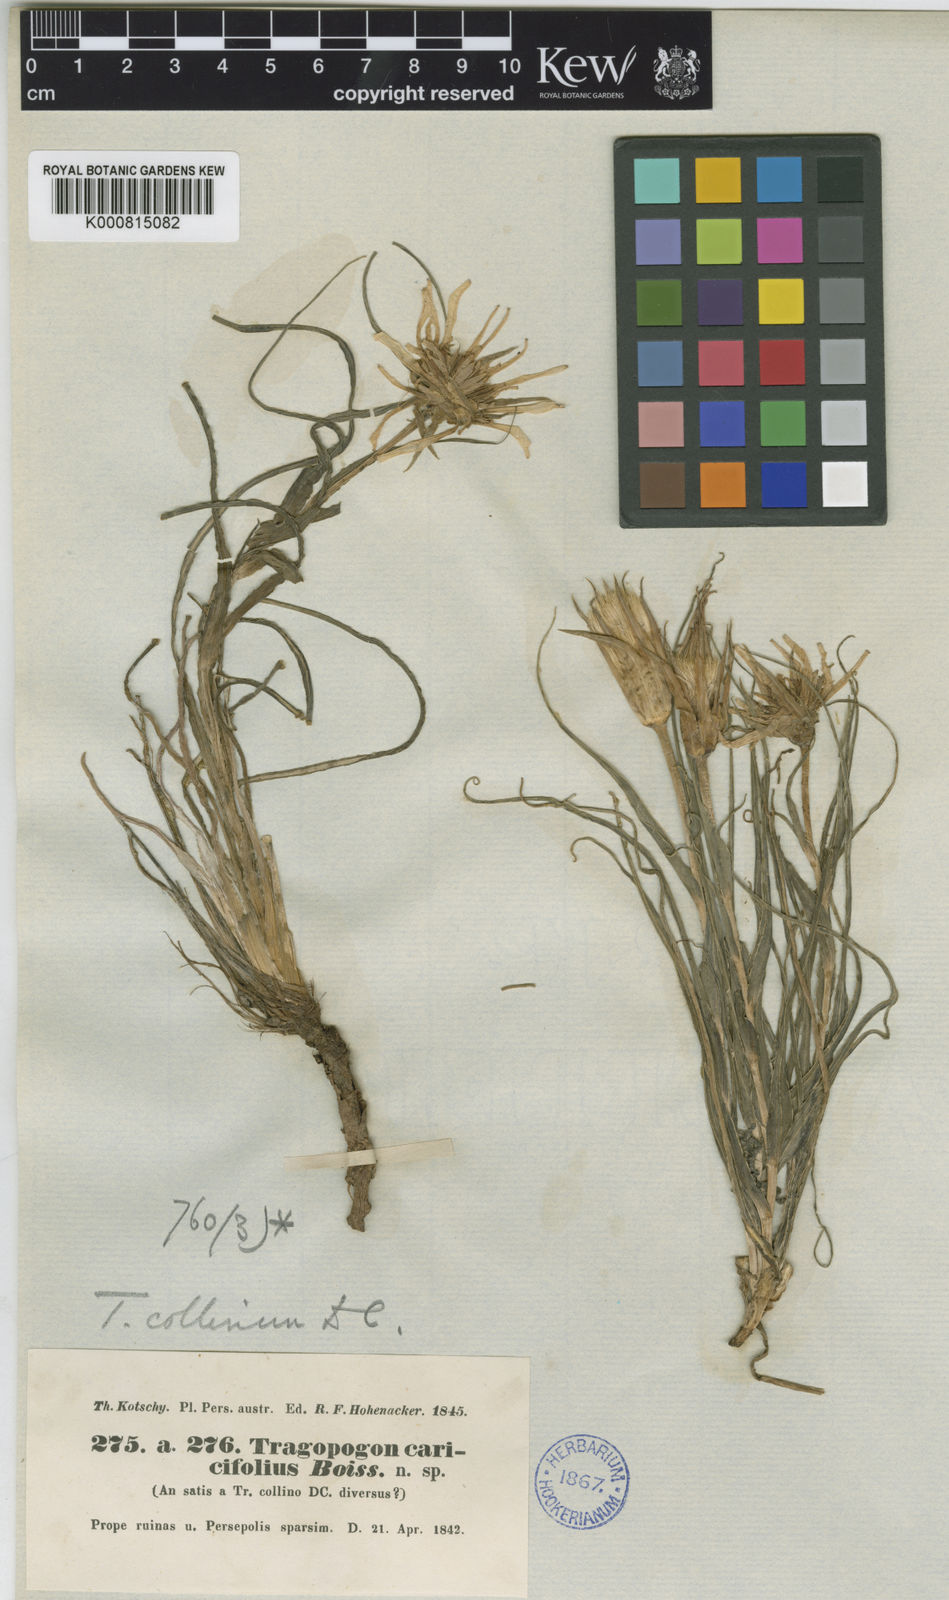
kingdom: Plantae
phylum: Tracheophyta
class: Magnoliopsida
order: Asterales
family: Asteraceae
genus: Tragopogon
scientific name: Tragopogon collinus
